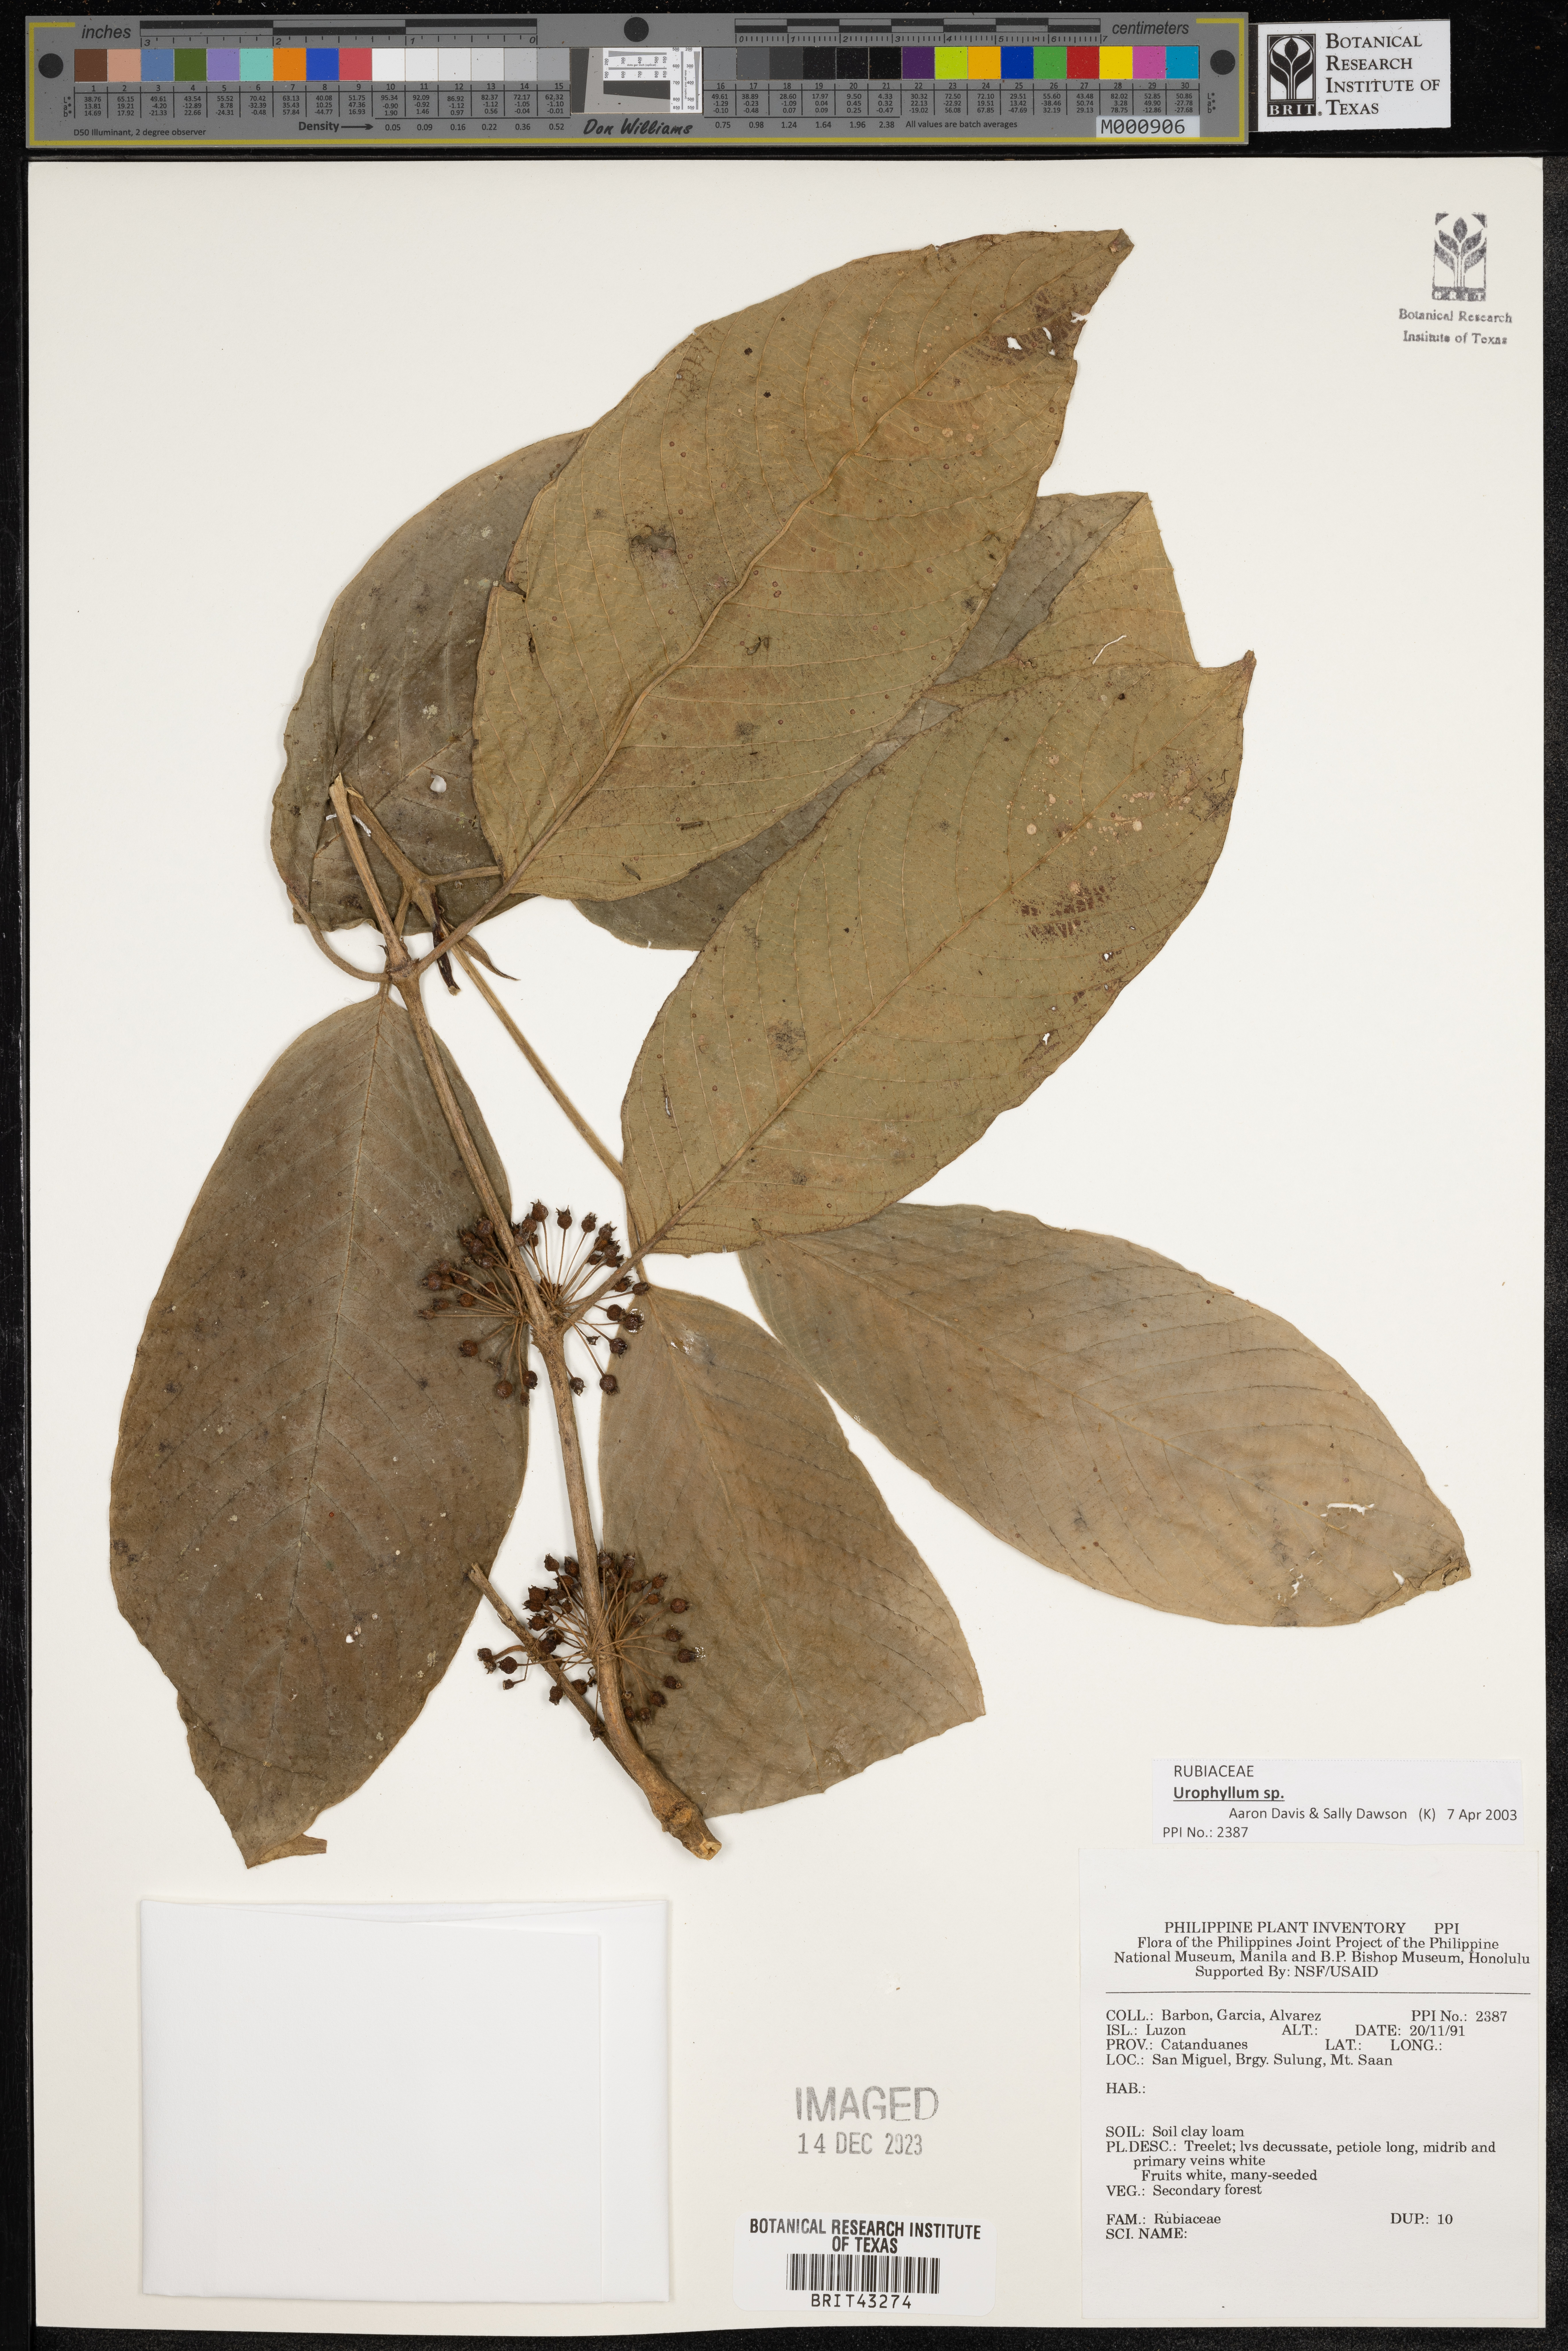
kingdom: Plantae
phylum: Tracheophyta
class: Magnoliopsida
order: Gentianales
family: Rubiaceae
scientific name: Rubiaceae
